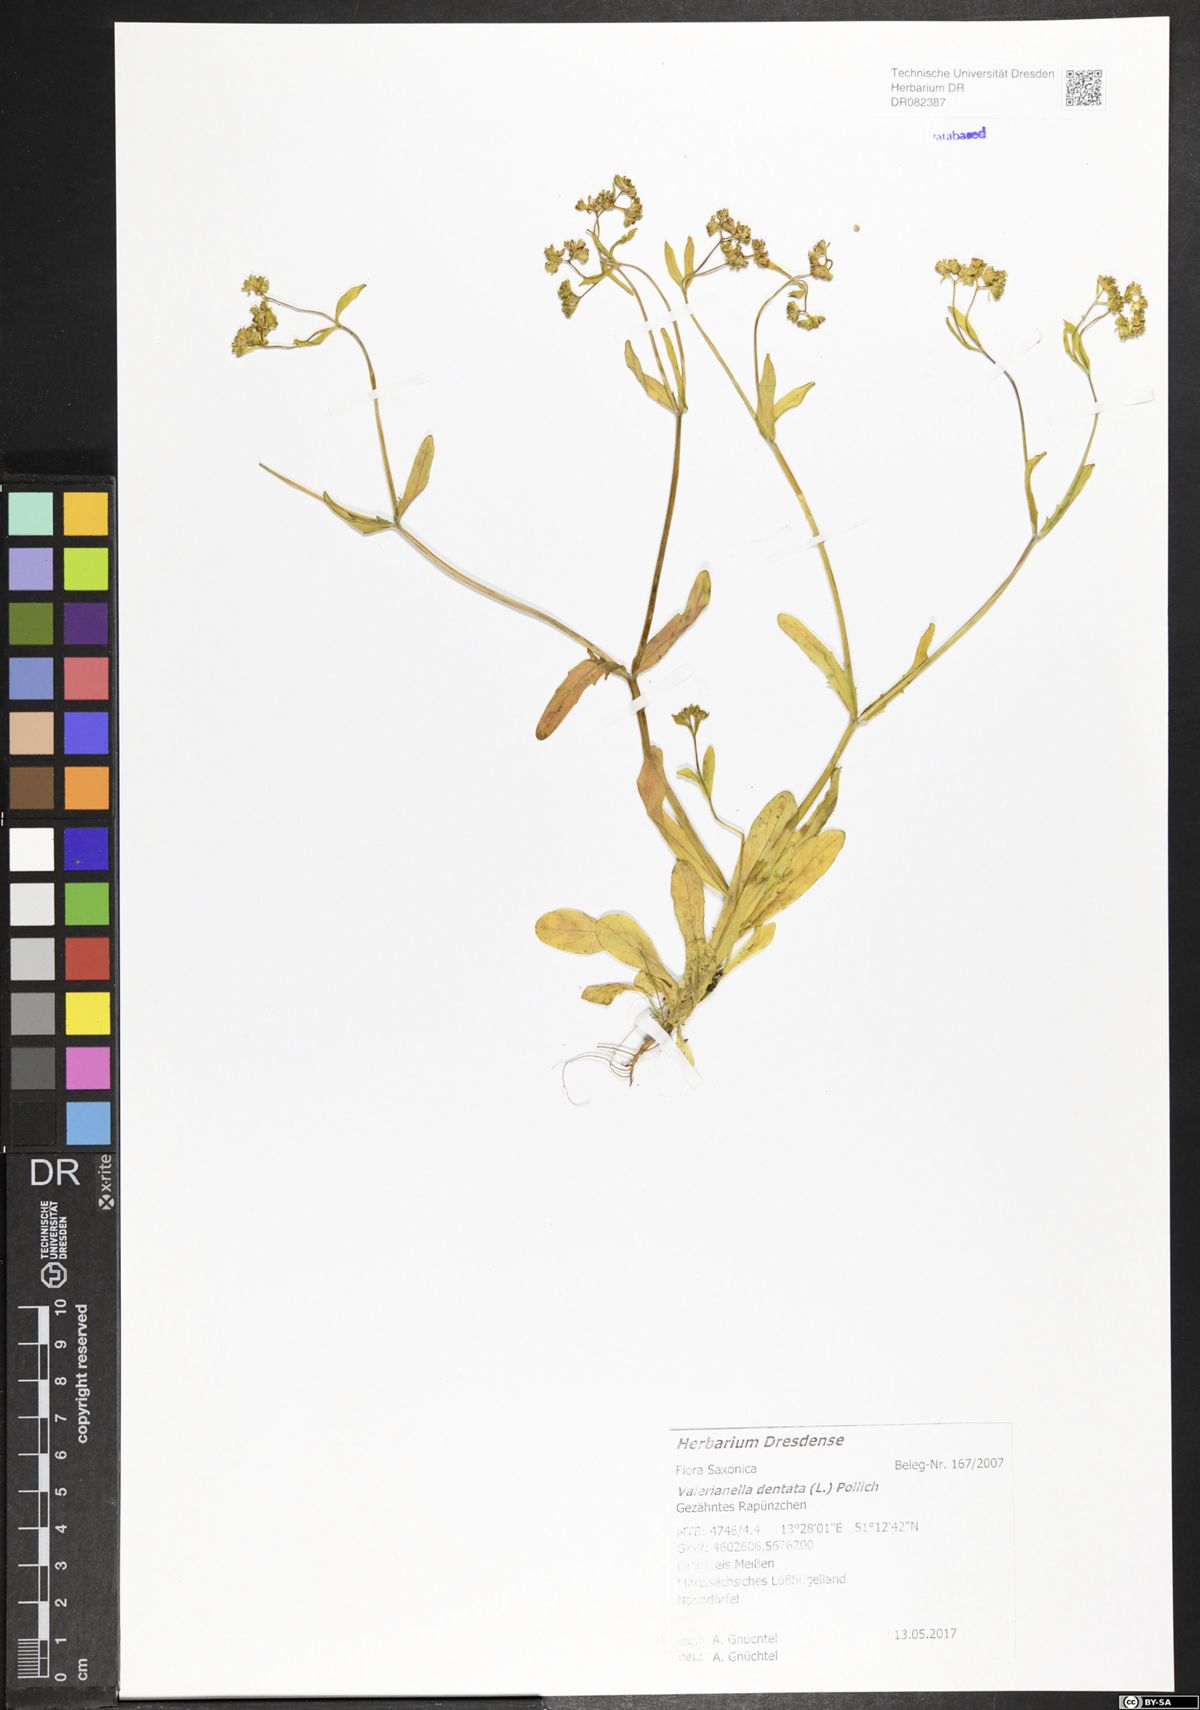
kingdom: Plantae
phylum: Tracheophyta
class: Magnoliopsida
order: Dipsacales
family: Caprifoliaceae
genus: Valerianella
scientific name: Valerianella dentata
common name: Narrow-fruited cornsalad
